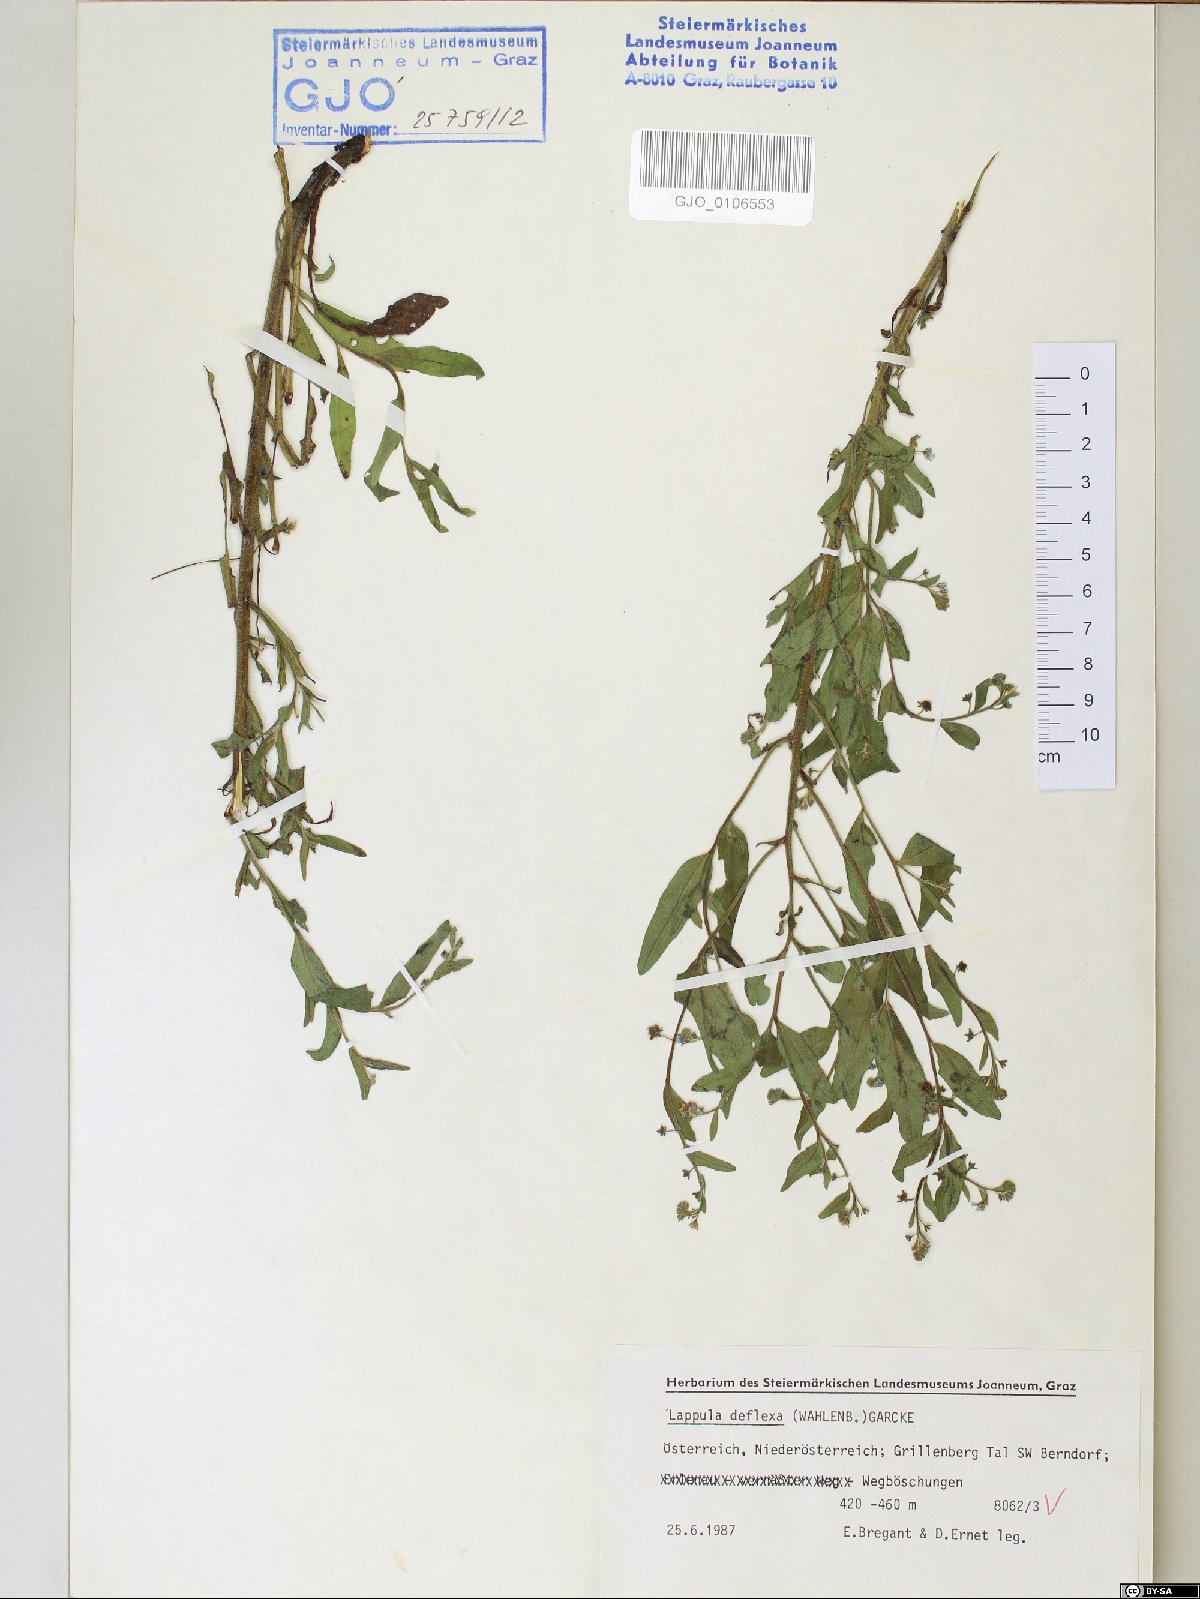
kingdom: Plantae
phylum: Tracheophyta
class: Magnoliopsida
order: Boraginales
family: Boraginaceae
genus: Hackelia
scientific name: Hackelia deflexa
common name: Nodding stickseed
